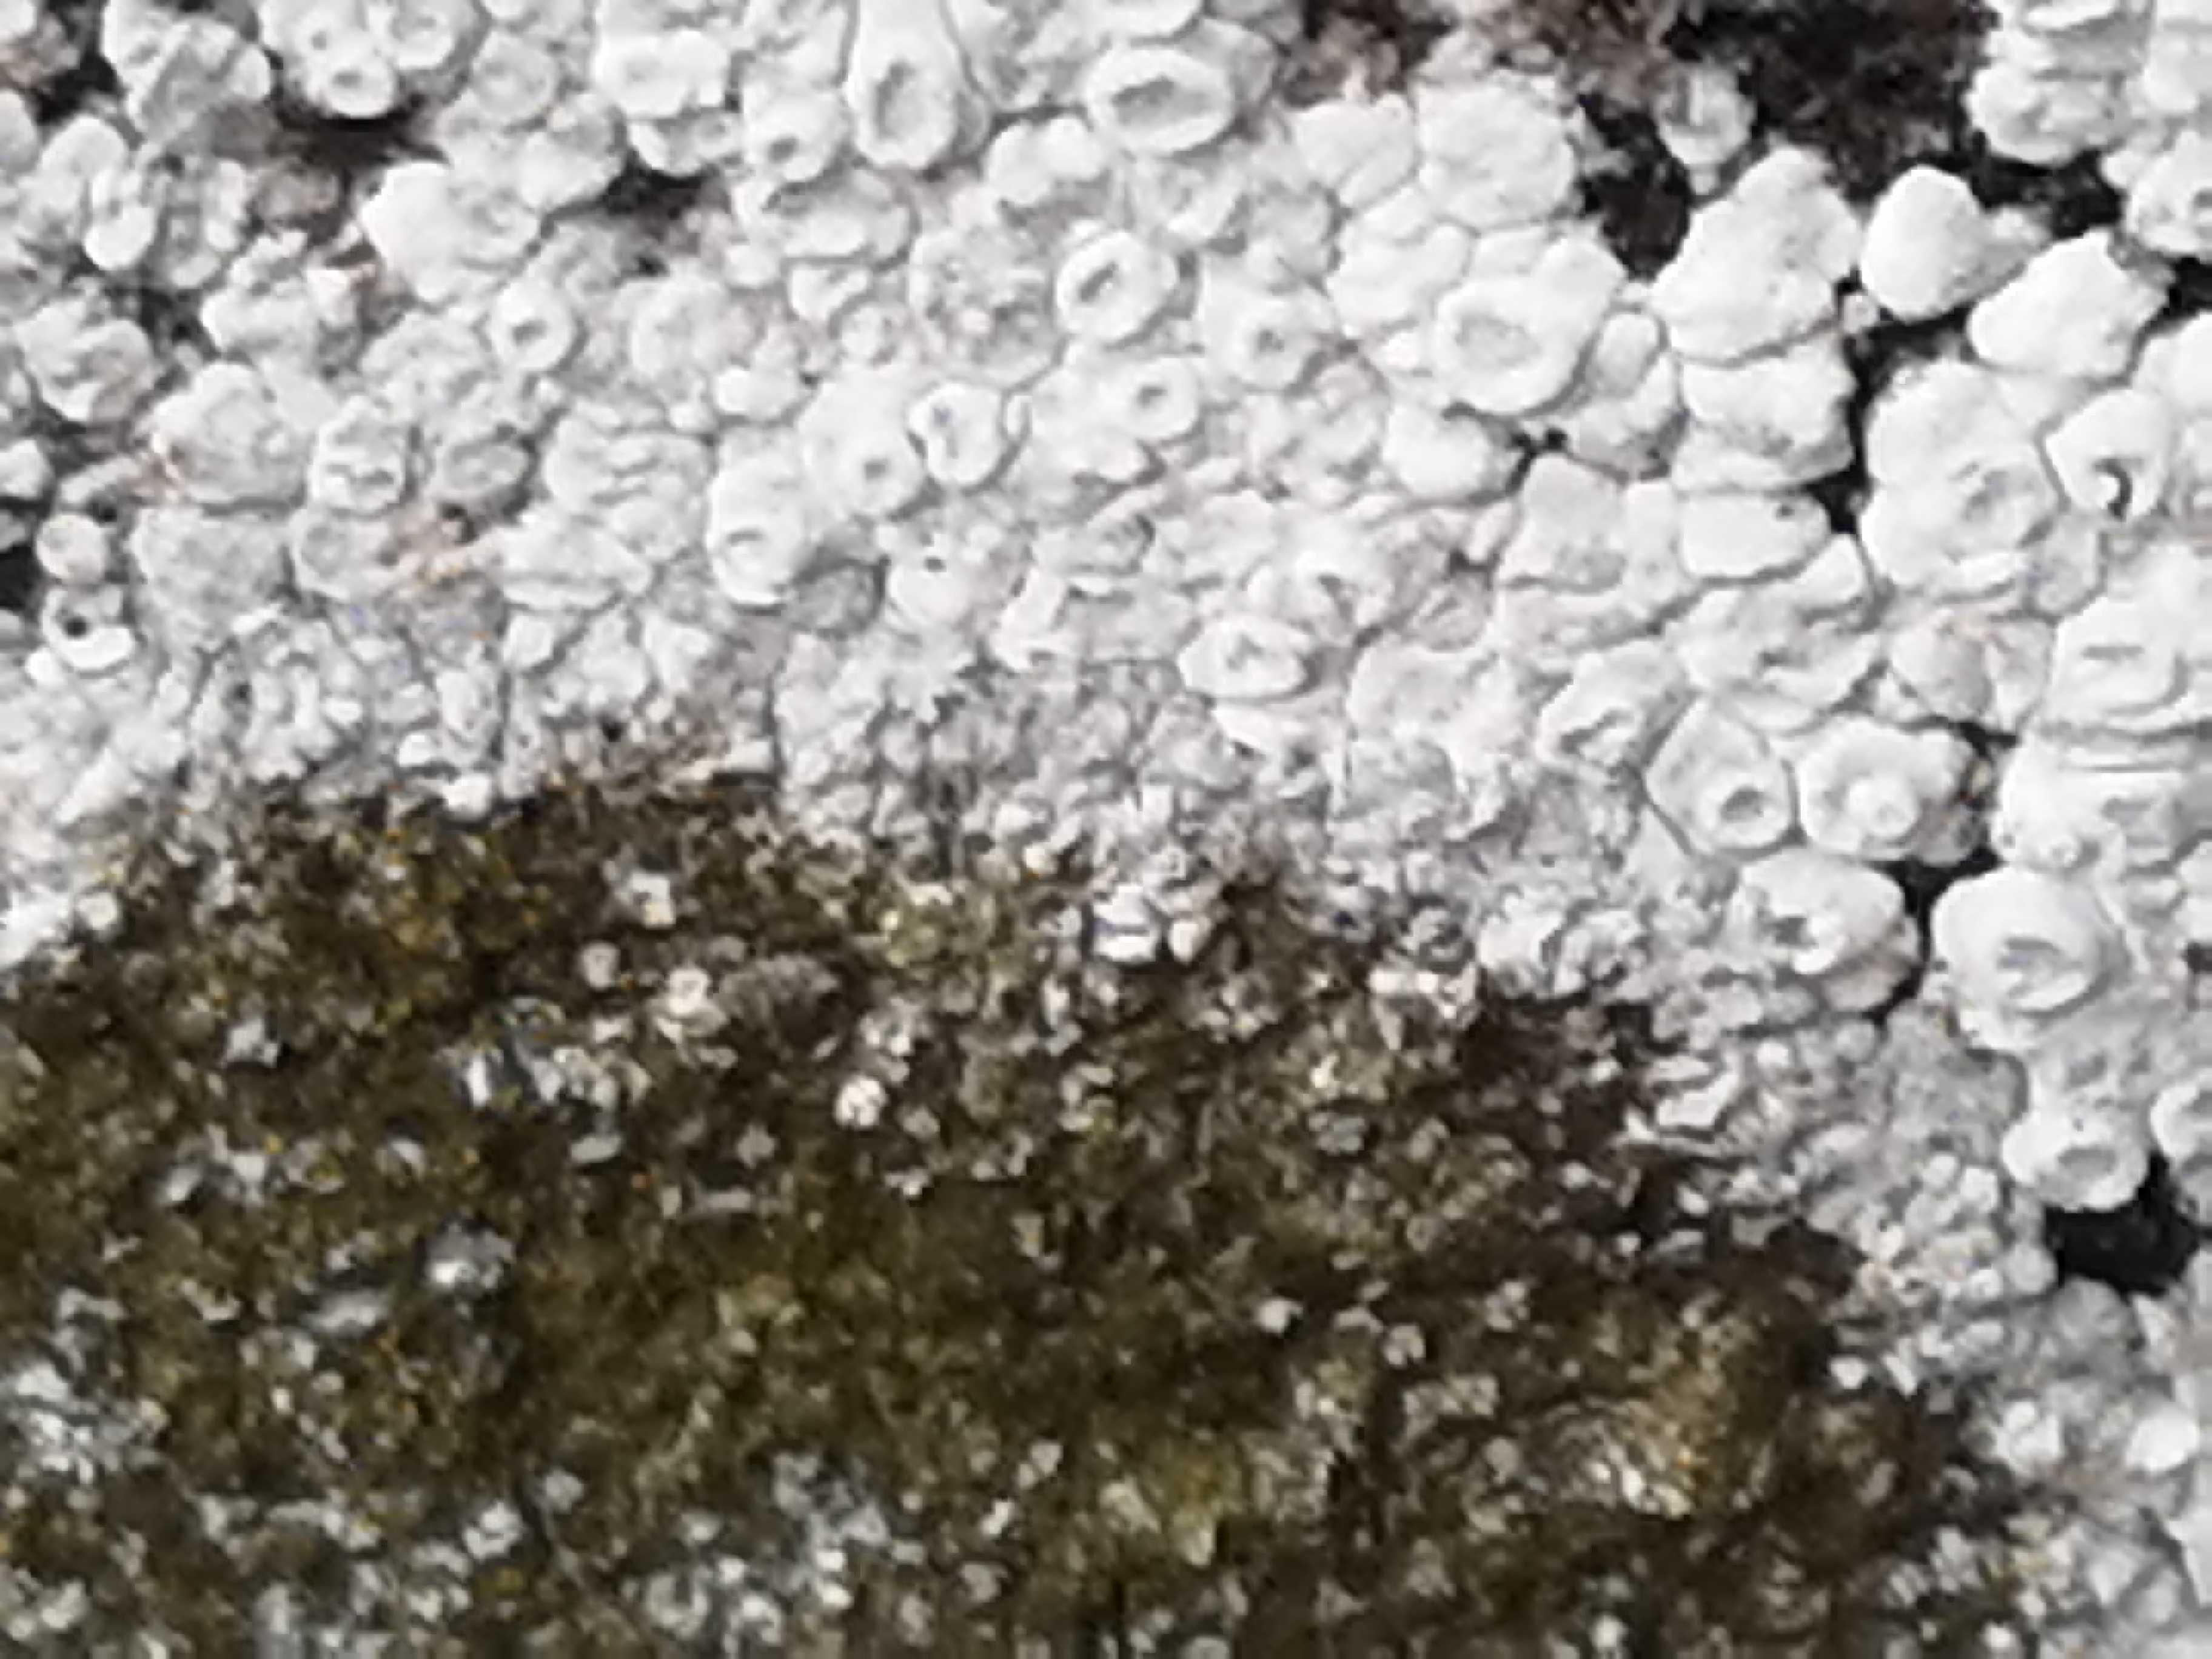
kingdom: Fungi
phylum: Ascomycota
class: Lecanoromycetes
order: Teloschistales
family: Teloschistaceae
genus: Kuettlingeria
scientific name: Kuettlingeria teicholyta
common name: grå orangelav
